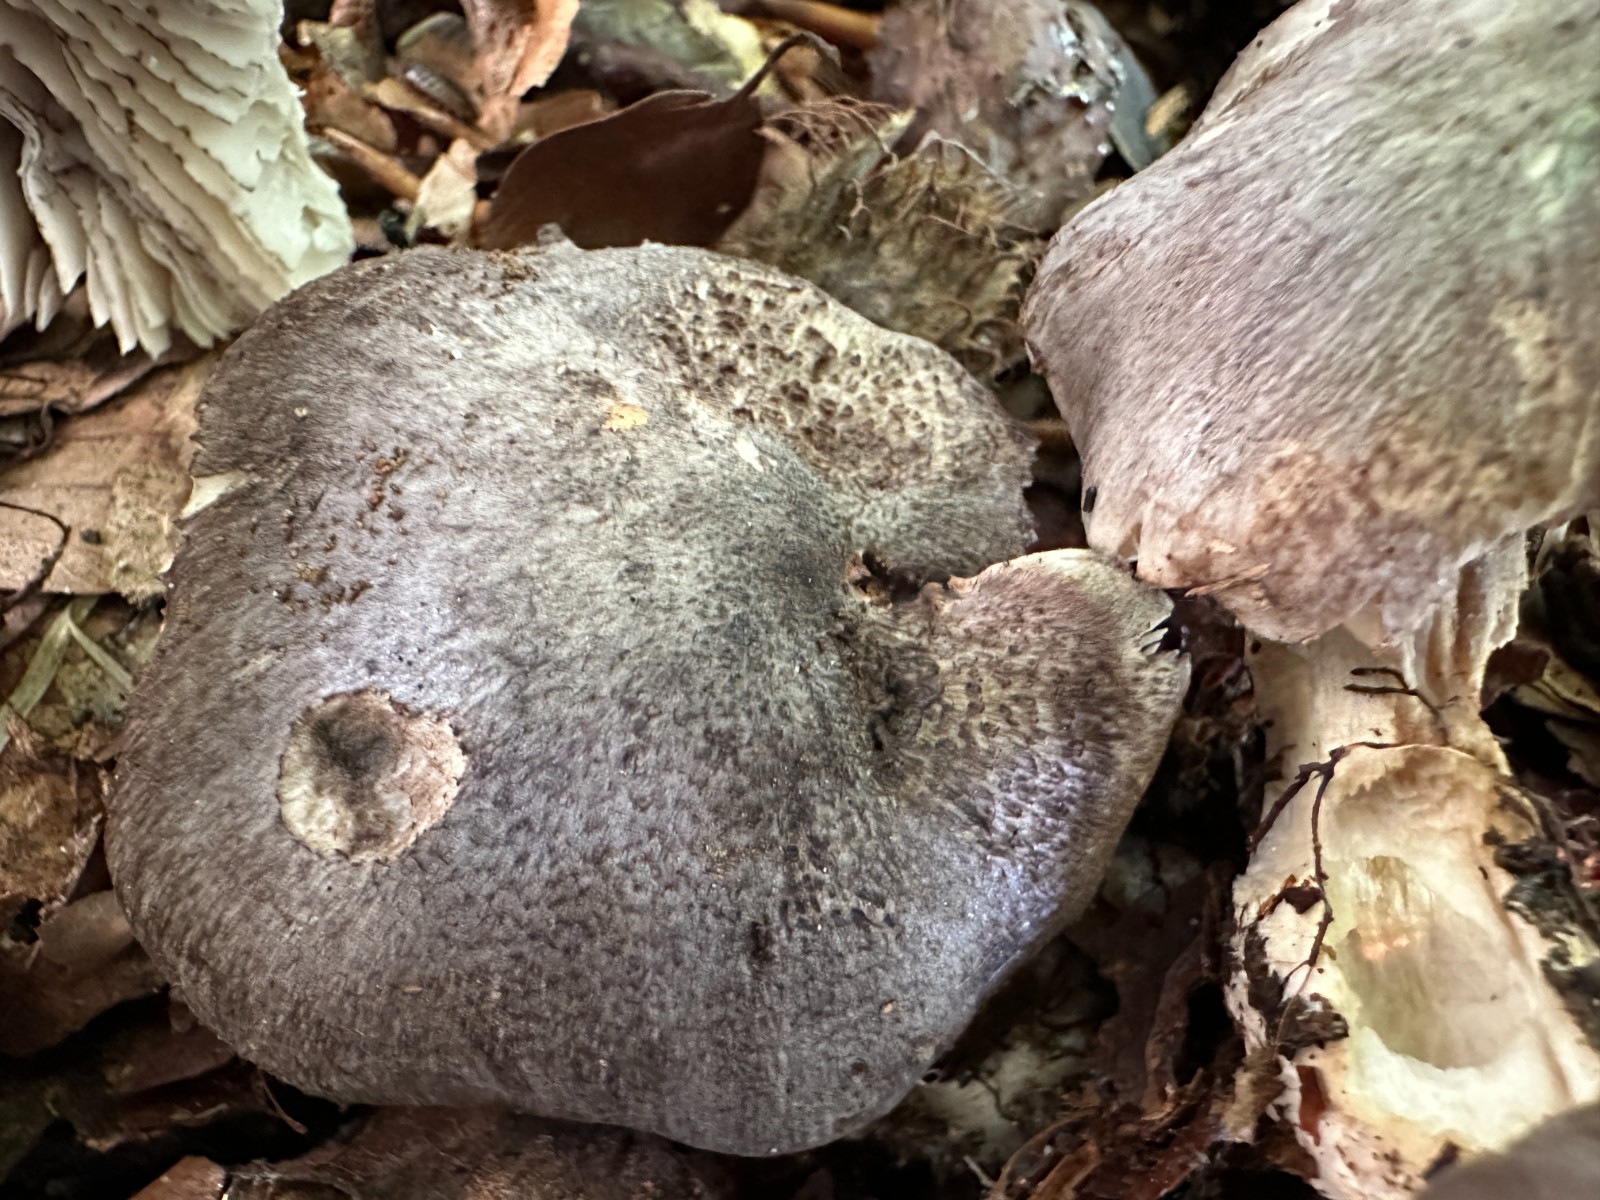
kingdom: Fungi
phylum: Basidiomycota
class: Agaricomycetes
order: Agaricales
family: Tricholomataceae
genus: Tricholoma
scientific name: Tricholoma sciodes
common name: stribet ridderhat
